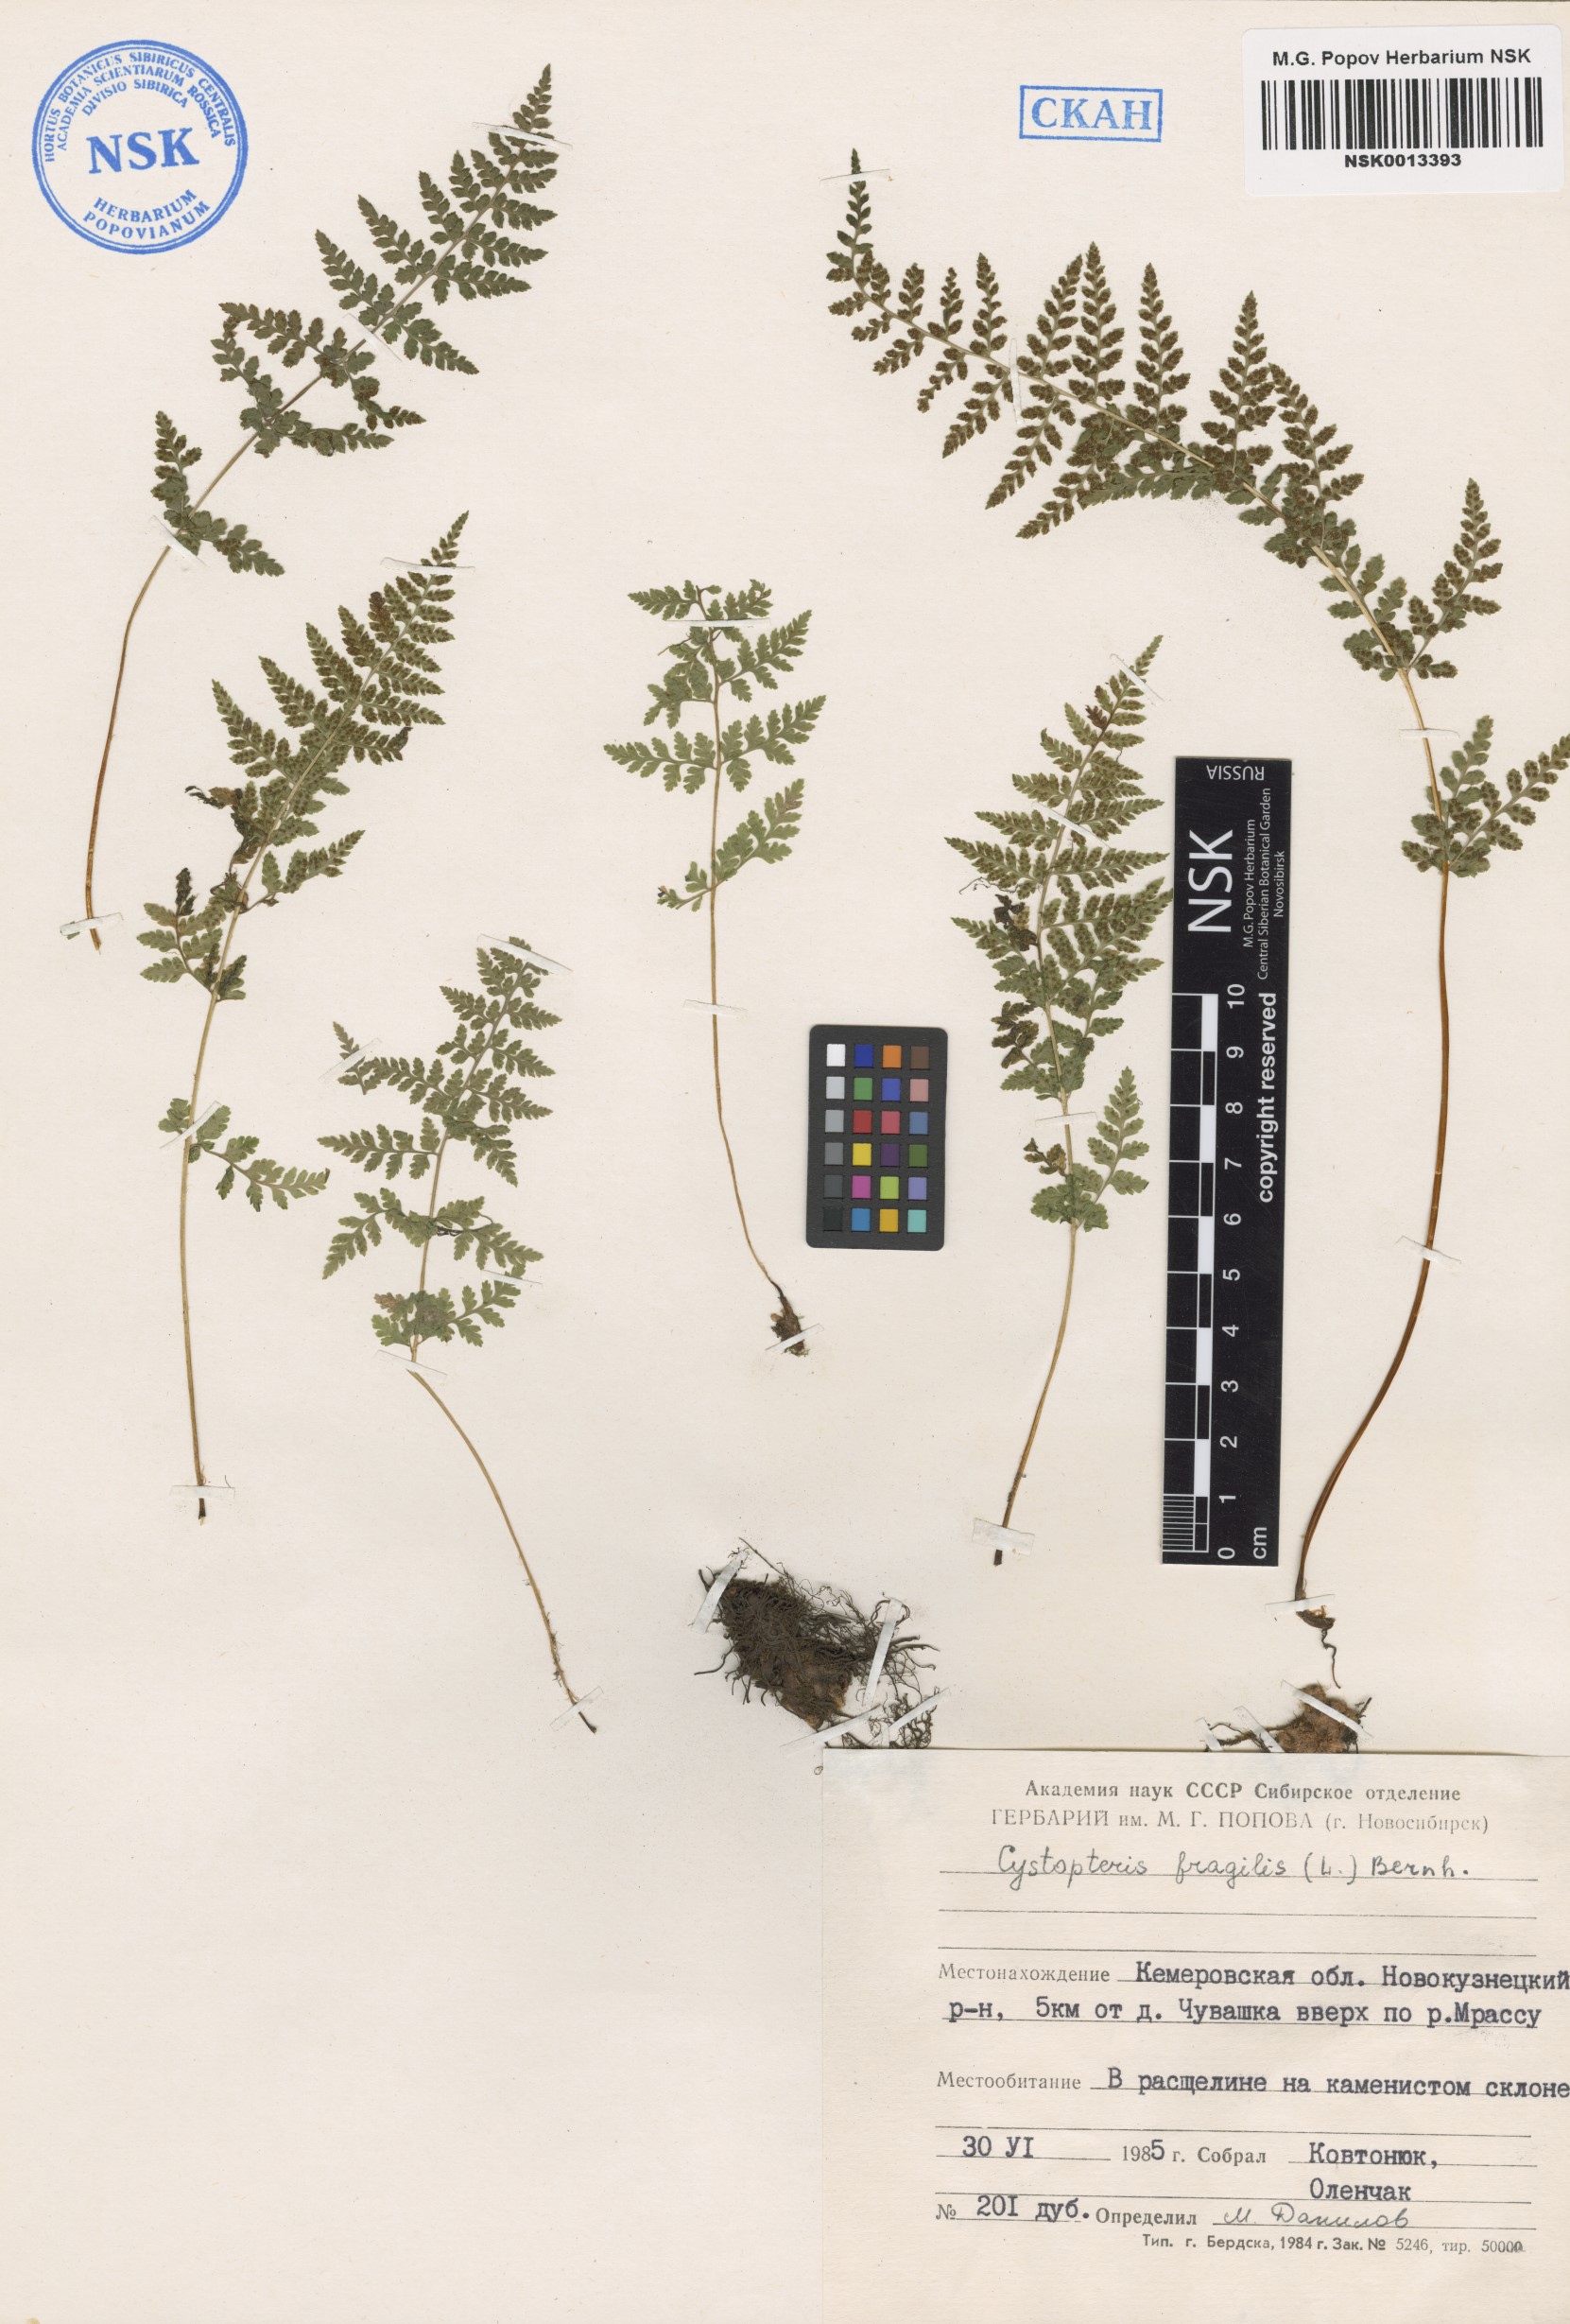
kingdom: Plantae
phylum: Tracheophyta
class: Polypodiopsida
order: Polypodiales
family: Cystopteridaceae
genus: Cystopteris
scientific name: Cystopteris fragilis
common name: Brittle bladder fern
